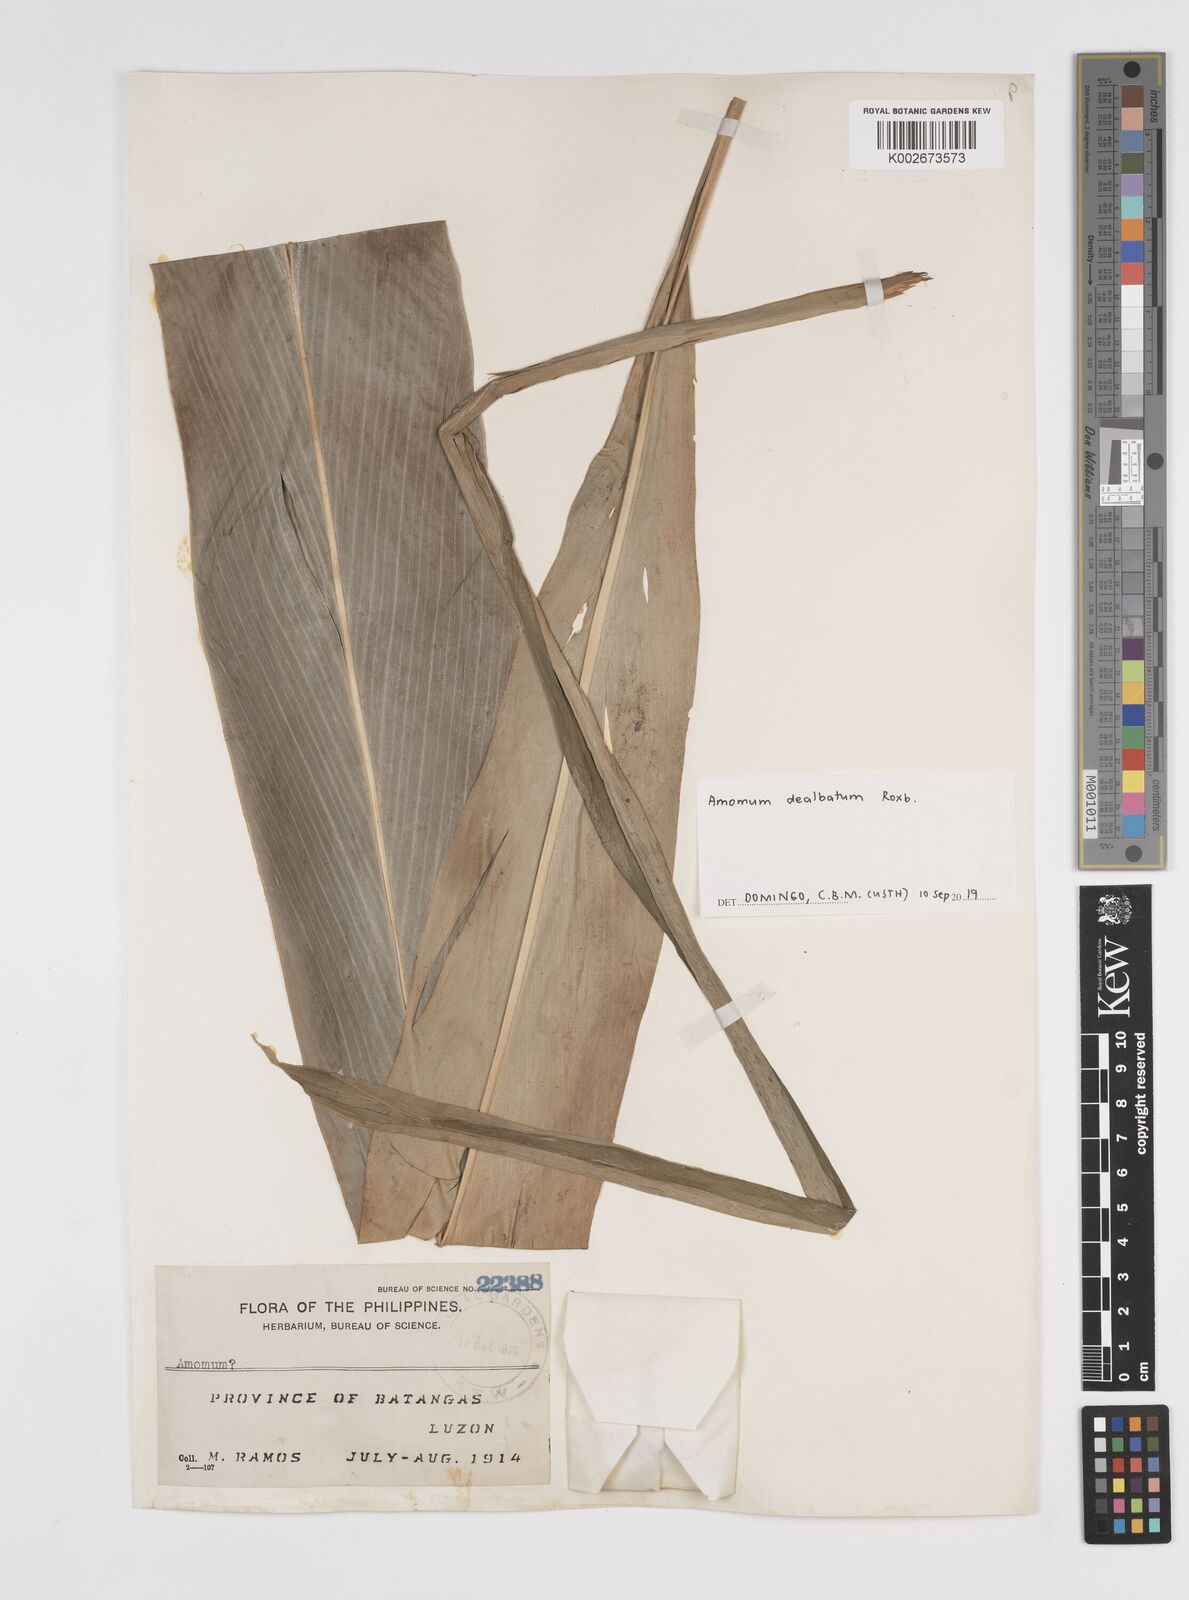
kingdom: Plantae
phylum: Tracheophyta
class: Liliopsida
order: Zingiberales
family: Zingiberaceae
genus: Amomum
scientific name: Amomum dealbatum
